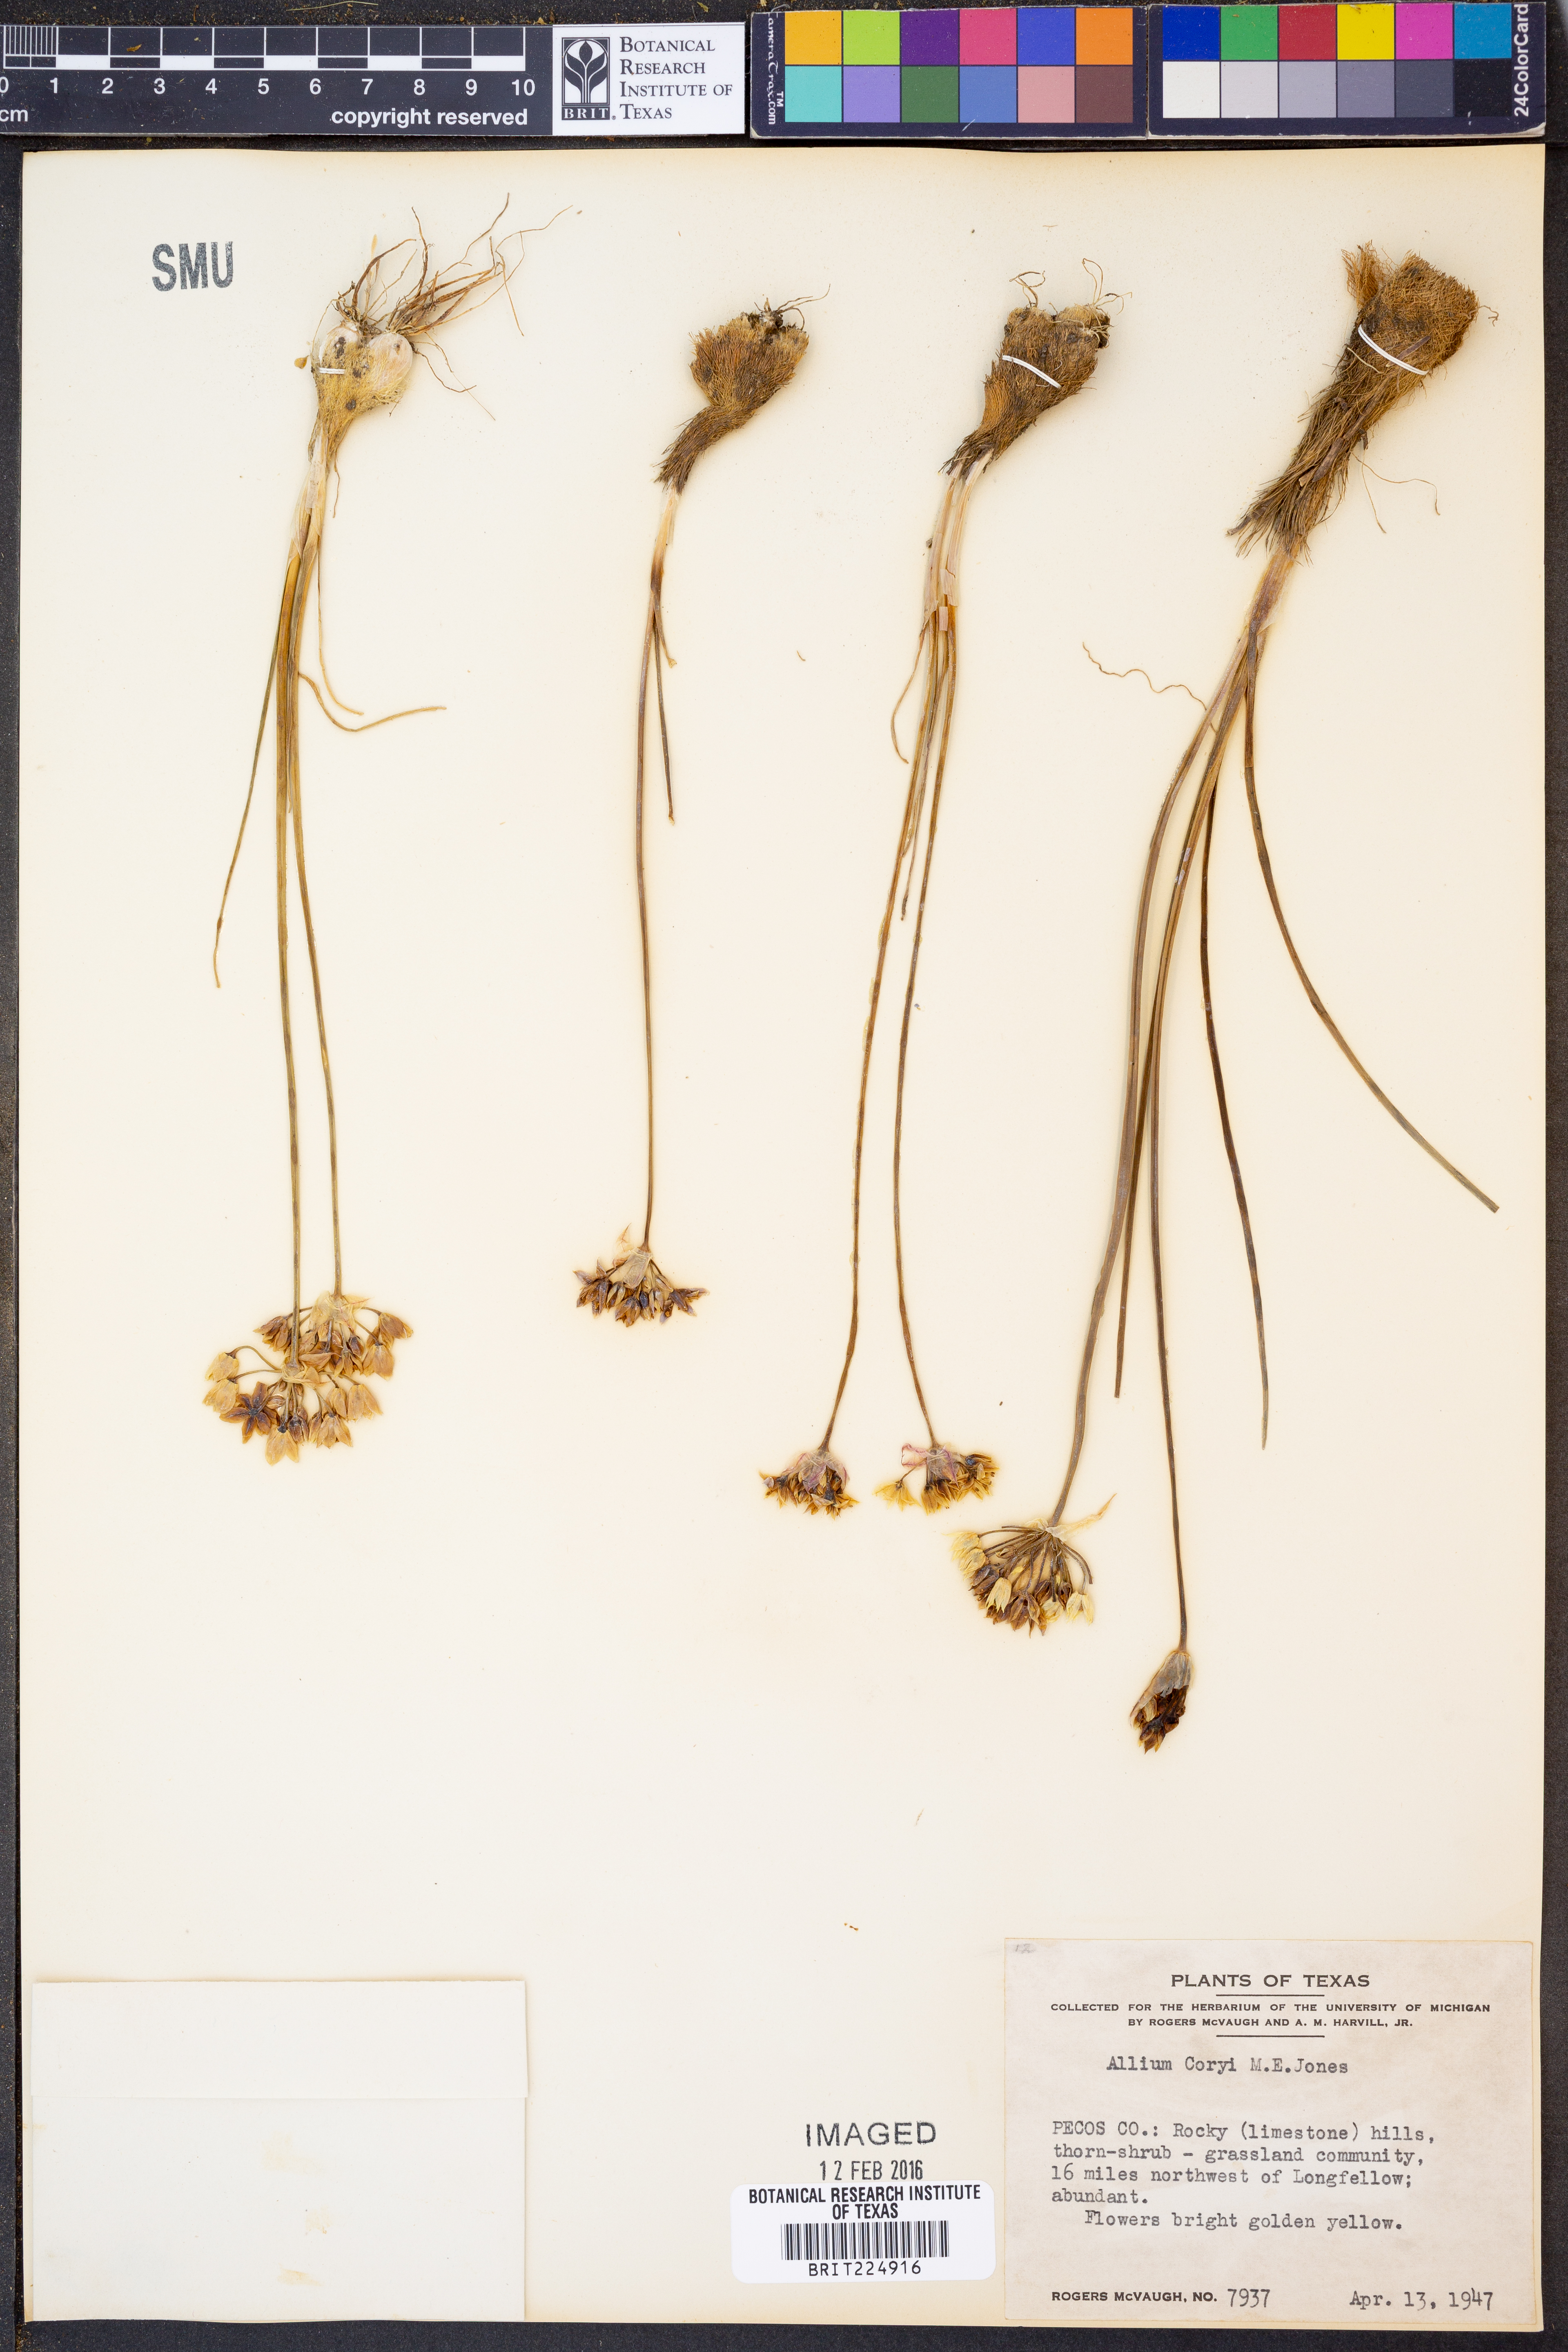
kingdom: Plantae
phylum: Tracheophyta
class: Liliopsida
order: Asparagales
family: Amaryllidaceae
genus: Allium
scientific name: Allium coryi
